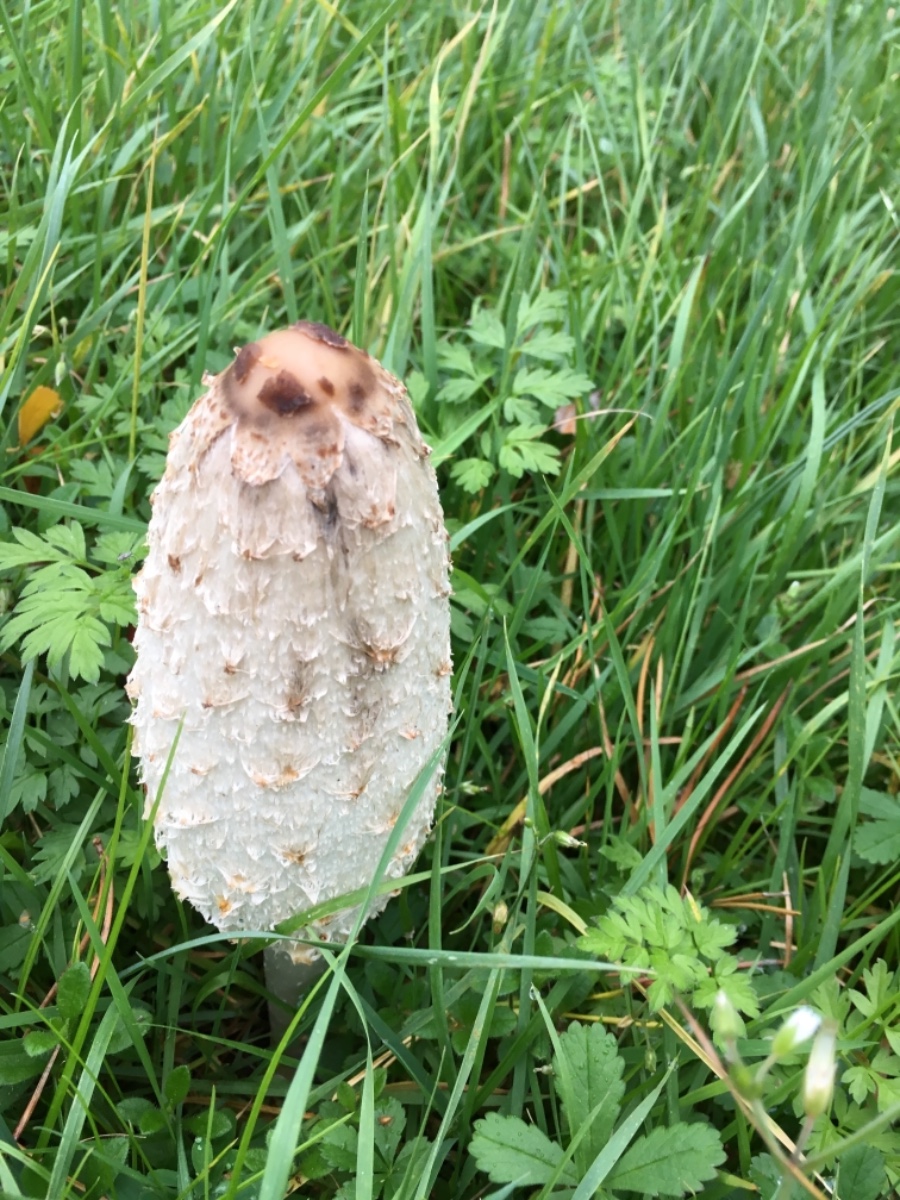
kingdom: Fungi
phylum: Basidiomycota
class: Agaricomycetes
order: Agaricales
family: Agaricaceae
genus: Coprinus
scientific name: Coprinus comatus
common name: stor parykhat
